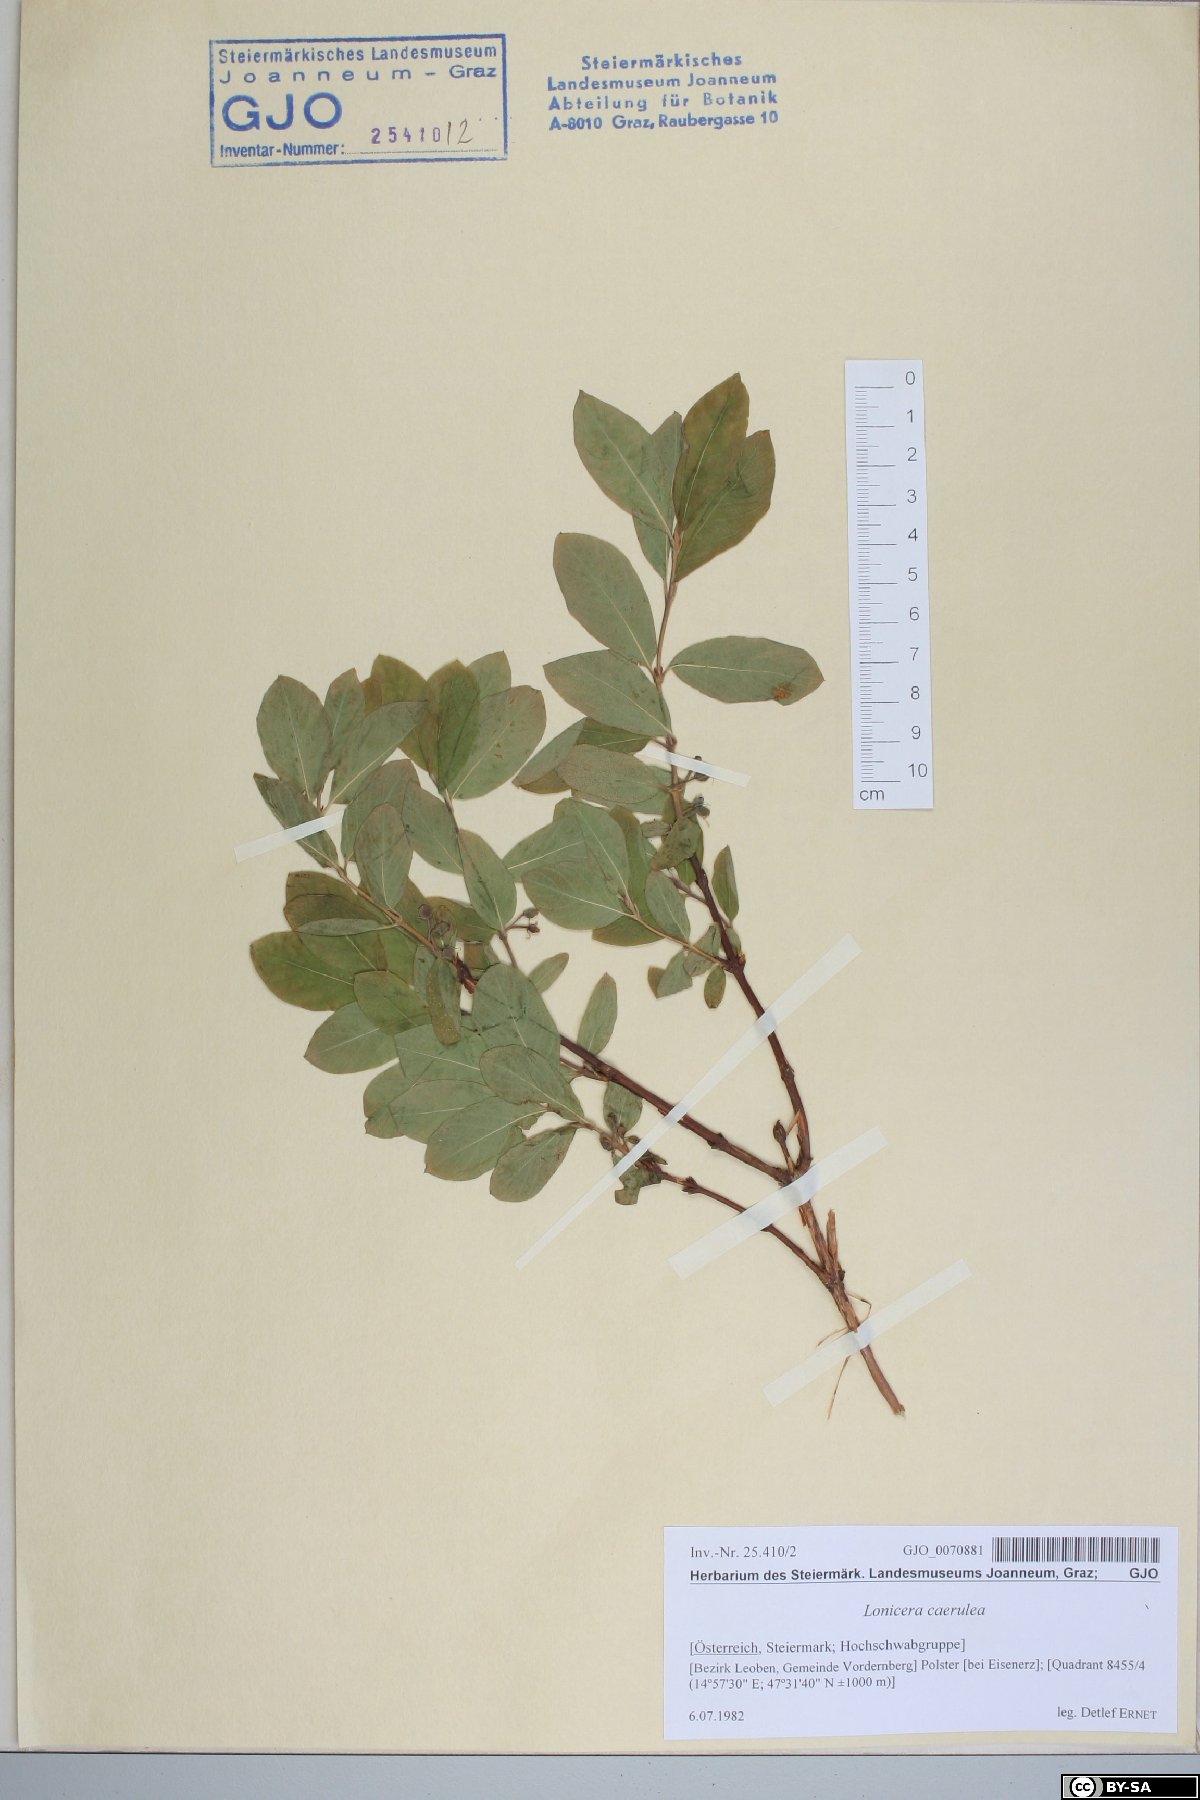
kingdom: Plantae
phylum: Tracheophyta
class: Magnoliopsida
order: Dipsacales
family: Caprifoliaceae
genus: Lonicera
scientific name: Lonicera caerulea
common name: Blue honeysuckle
